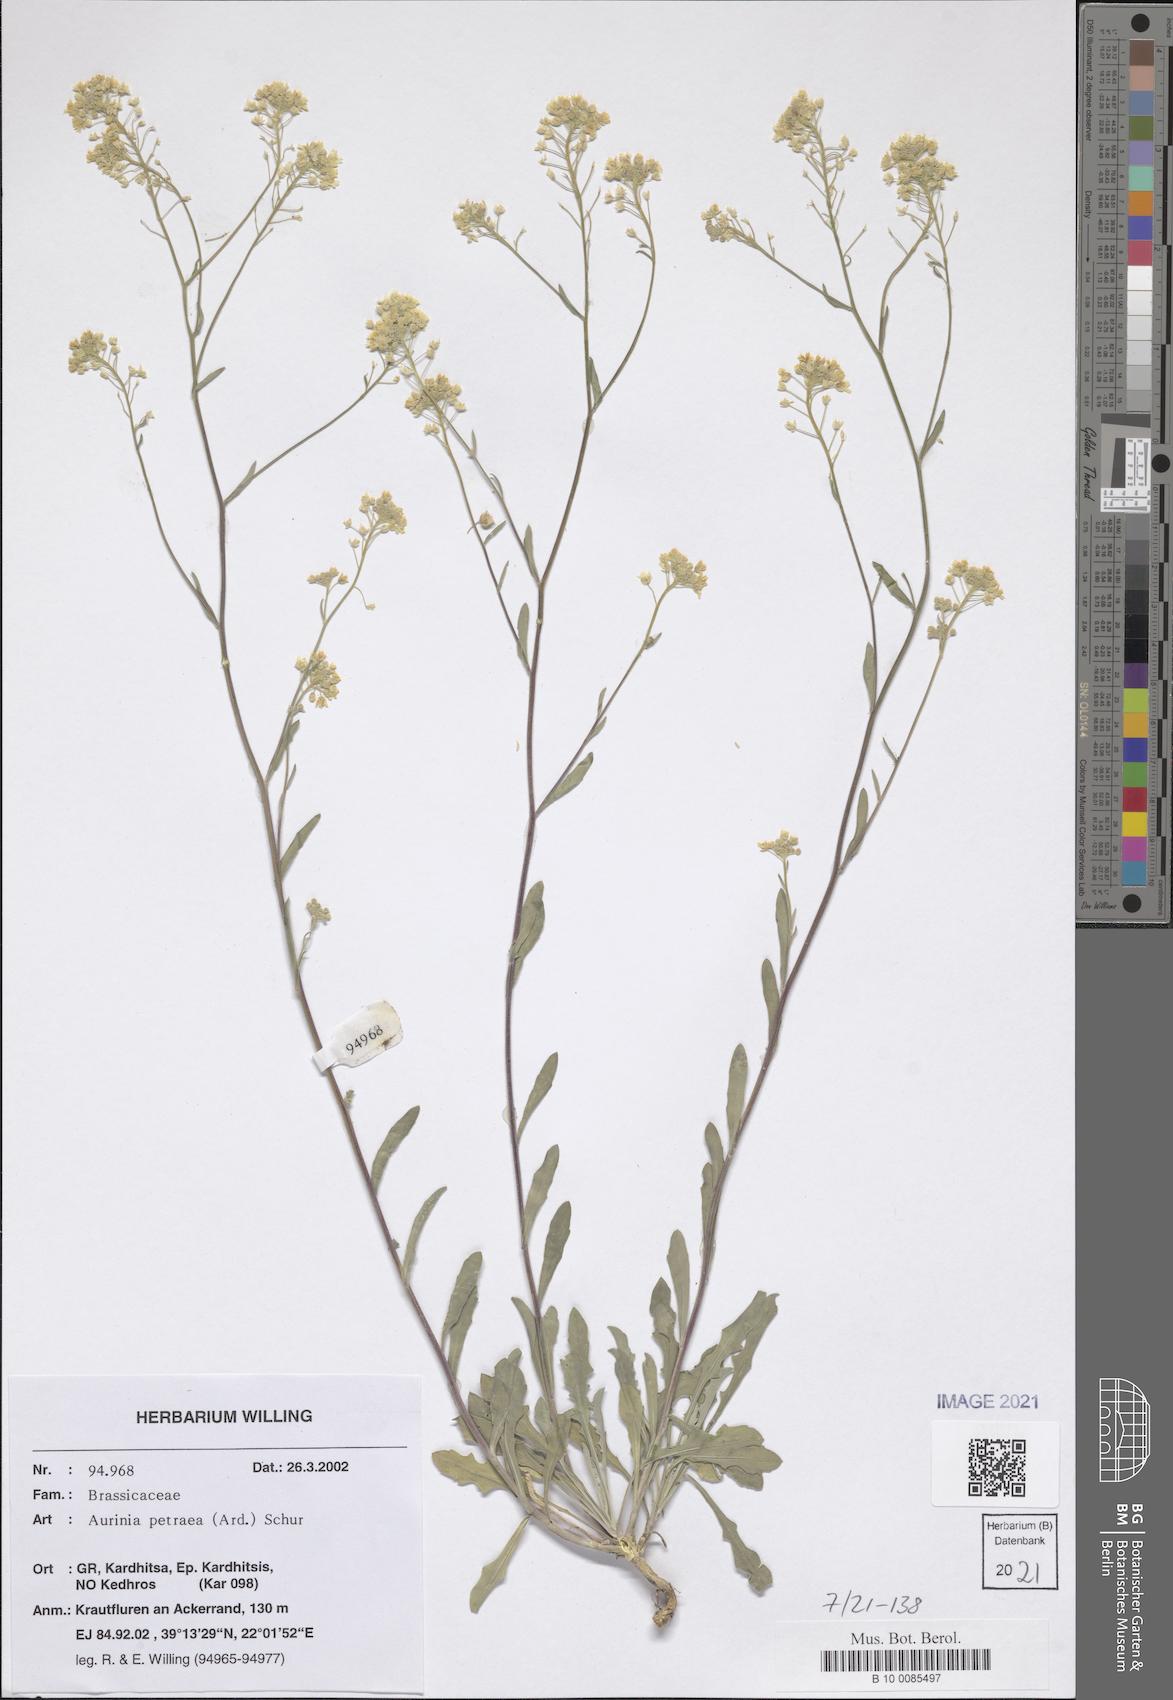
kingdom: Plantae
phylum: Tracheophyta
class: Magnoliopsida
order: Brassicales
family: Brassicaceae
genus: Aurinia
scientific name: Aurinia petraea
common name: Goldentuft
